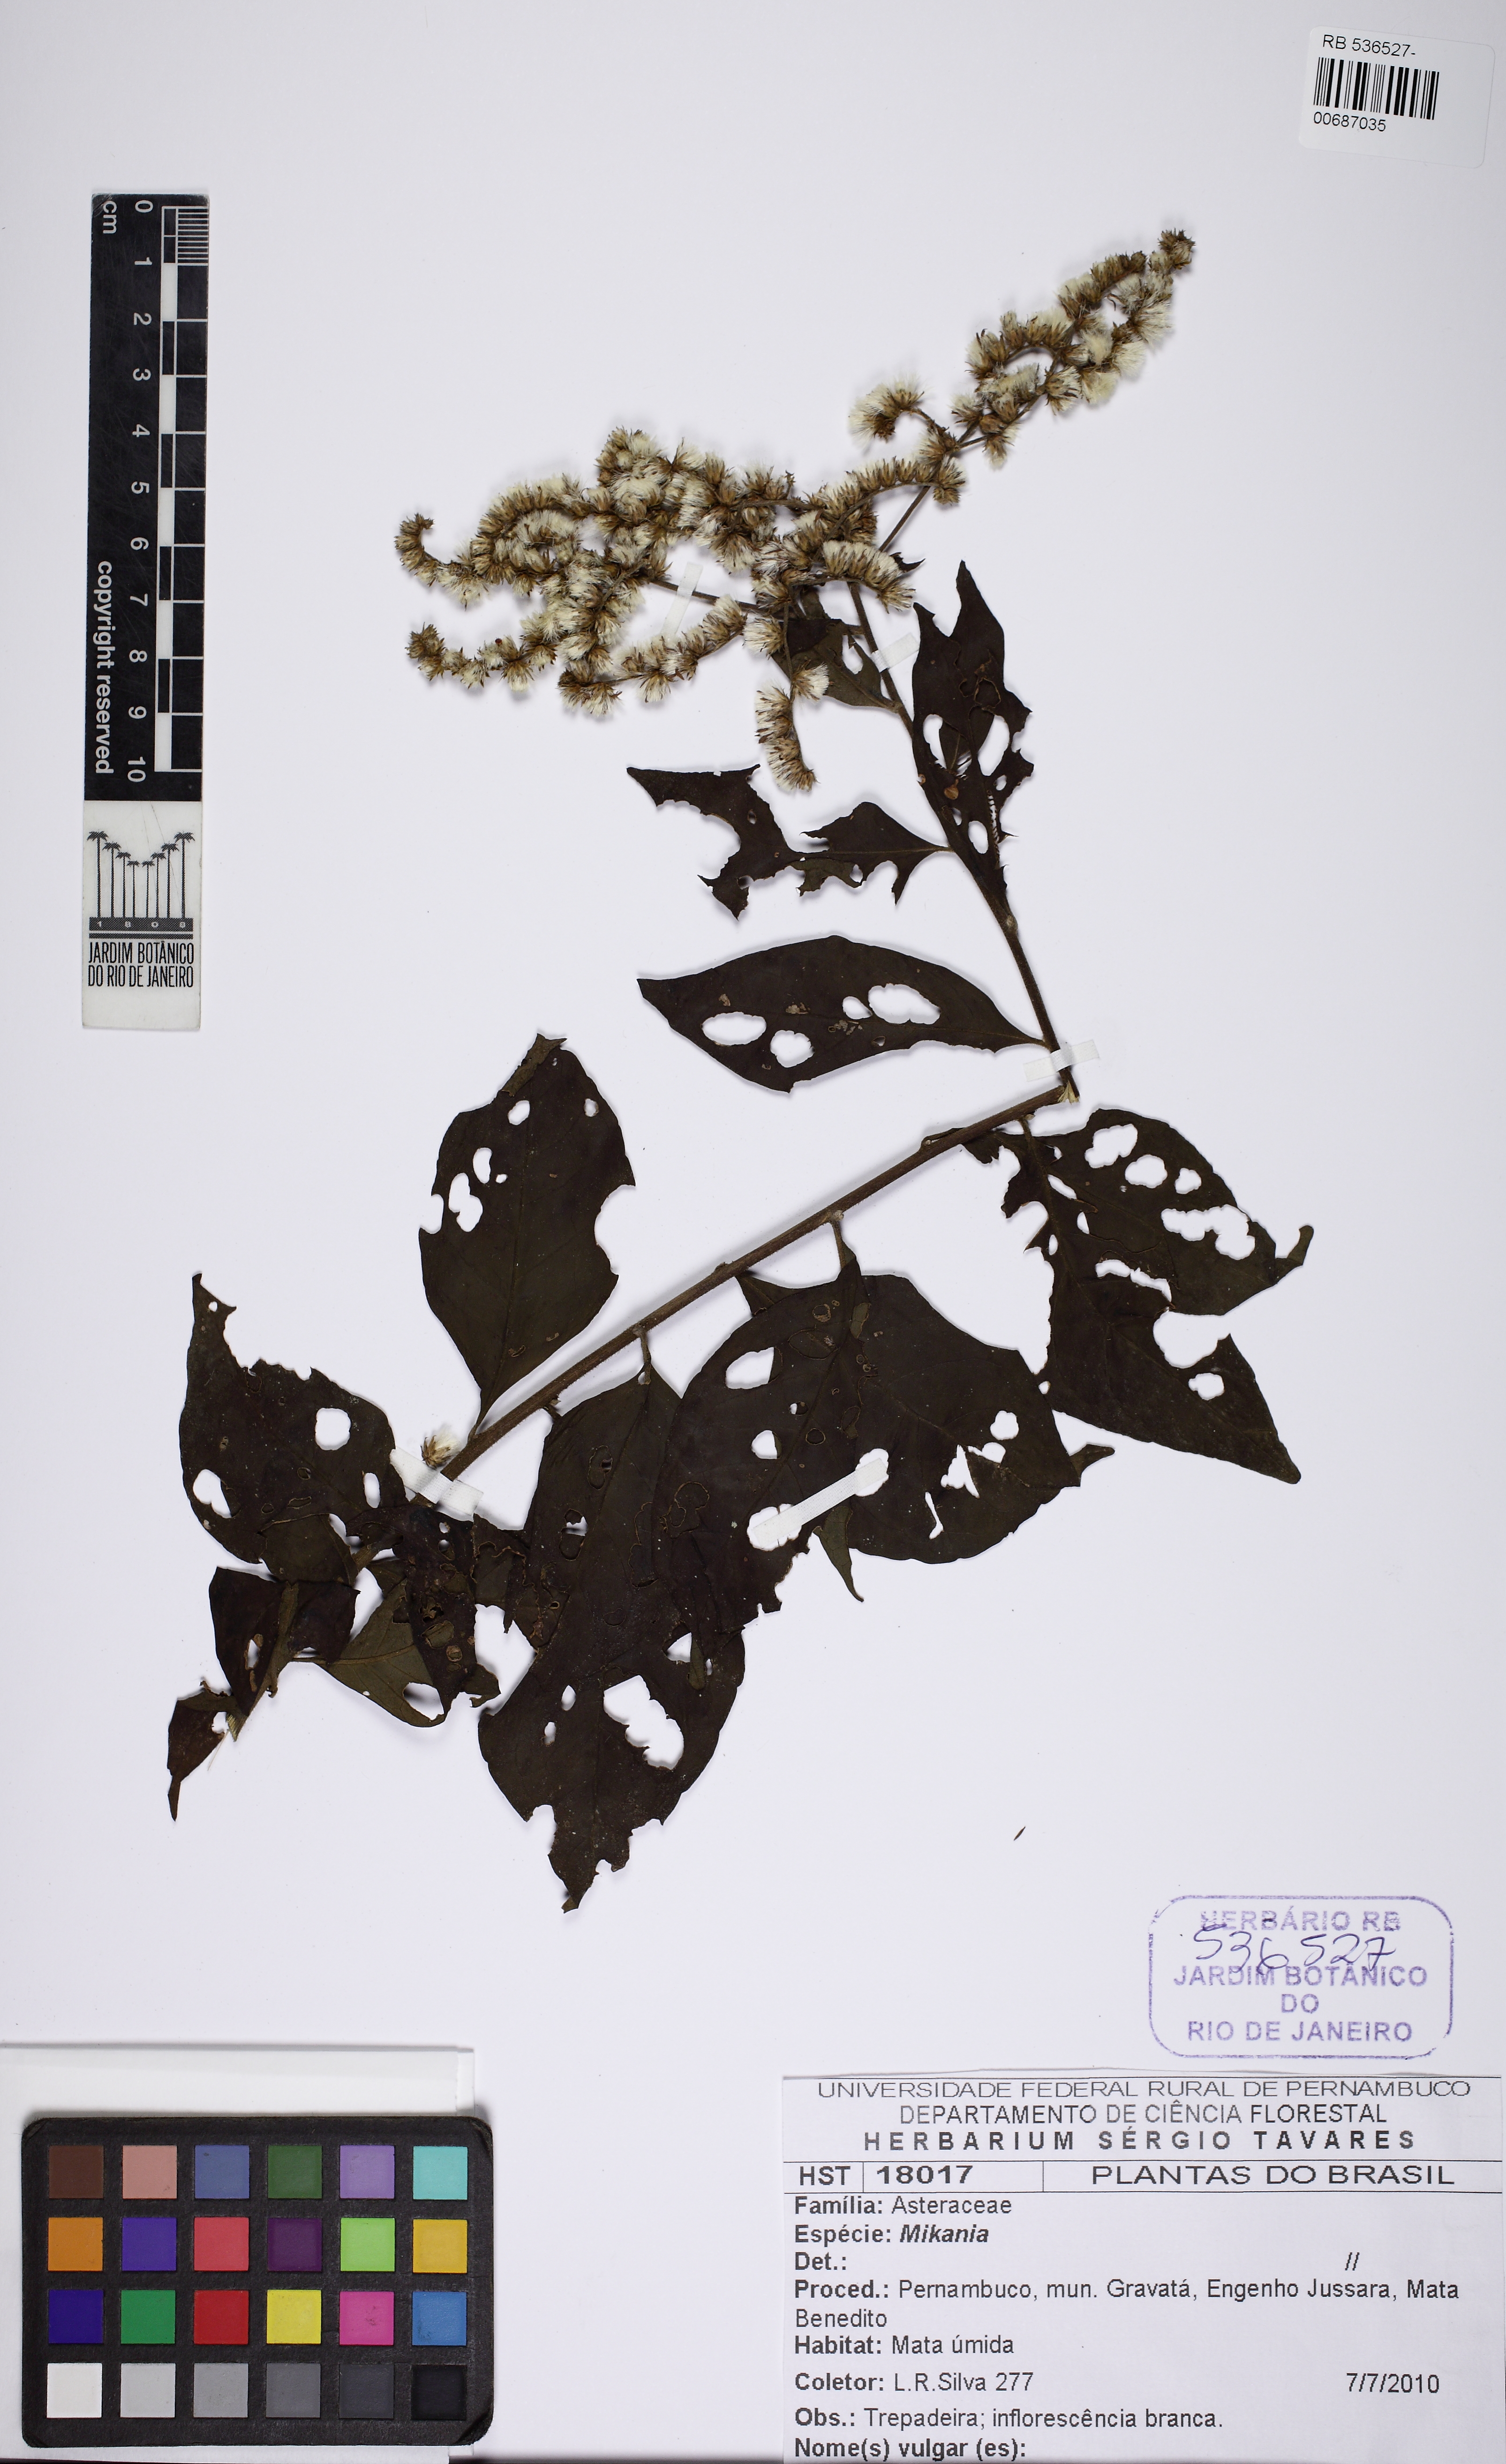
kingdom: Plantae
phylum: Tracheophyta
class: Magnoliopsida
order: Asterales
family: Asteraceae
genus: Cyrtocymura
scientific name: Cyrtocymura
